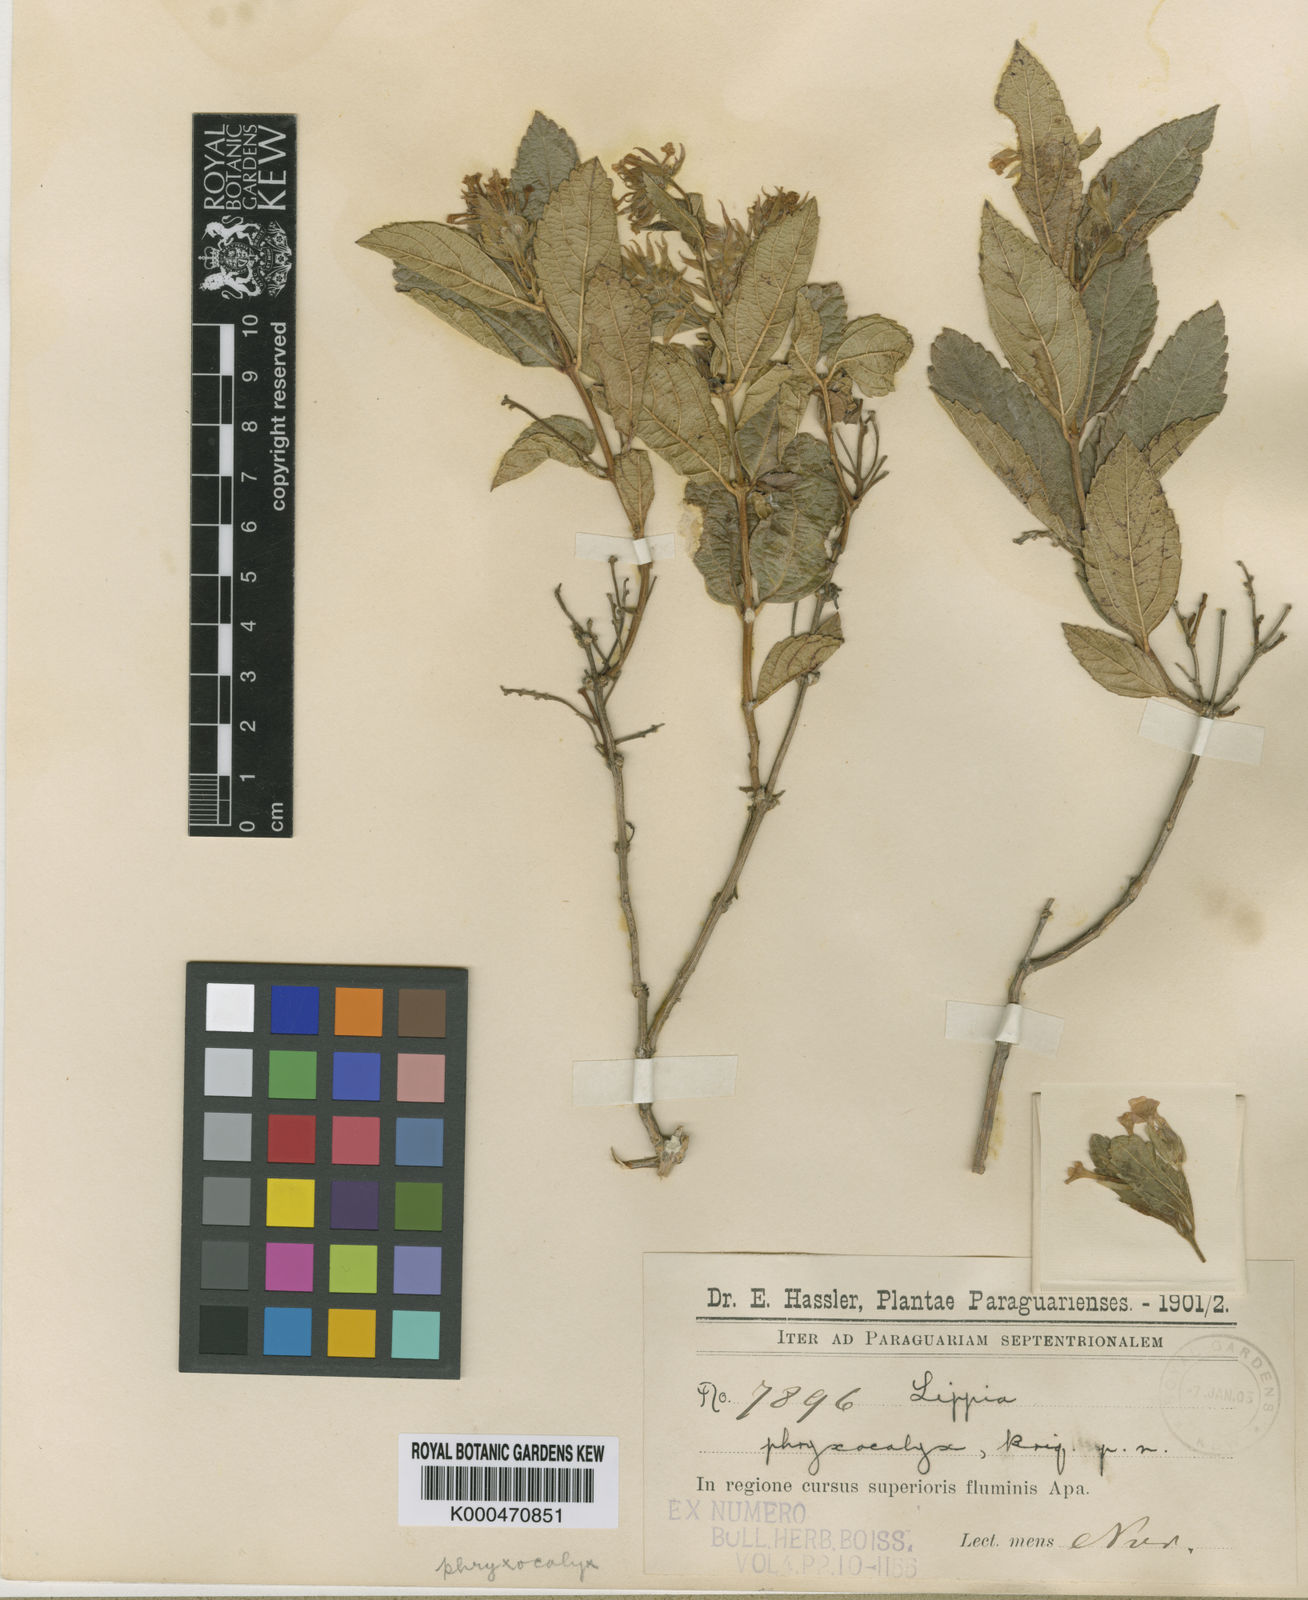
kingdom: Plantae
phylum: Tracheophyta
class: Magnoliopsida
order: Lamiales
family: Verbenaceae
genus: Lippia
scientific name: Lippia phryxocalyx
